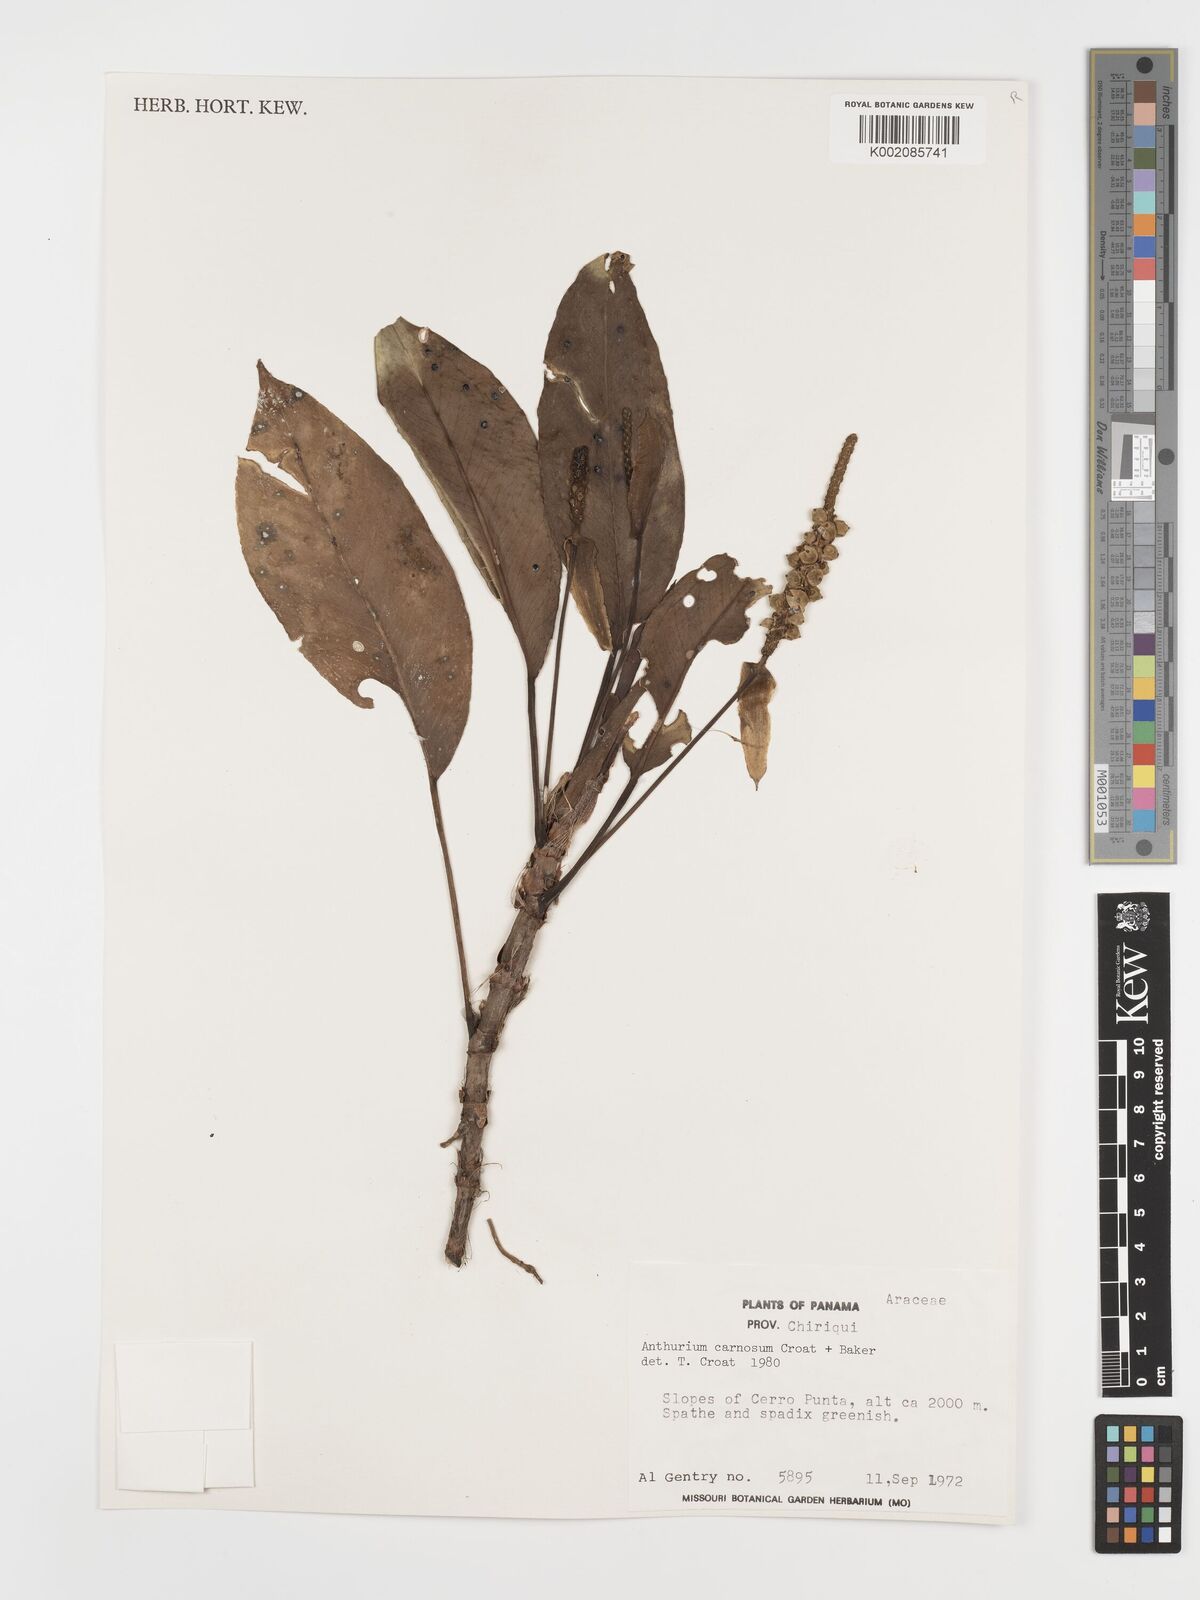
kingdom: Plantae
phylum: Tracheophyta
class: Liliopsida
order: Alismatales
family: Araceae
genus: Anthurium
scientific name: Anthurium carnosum
